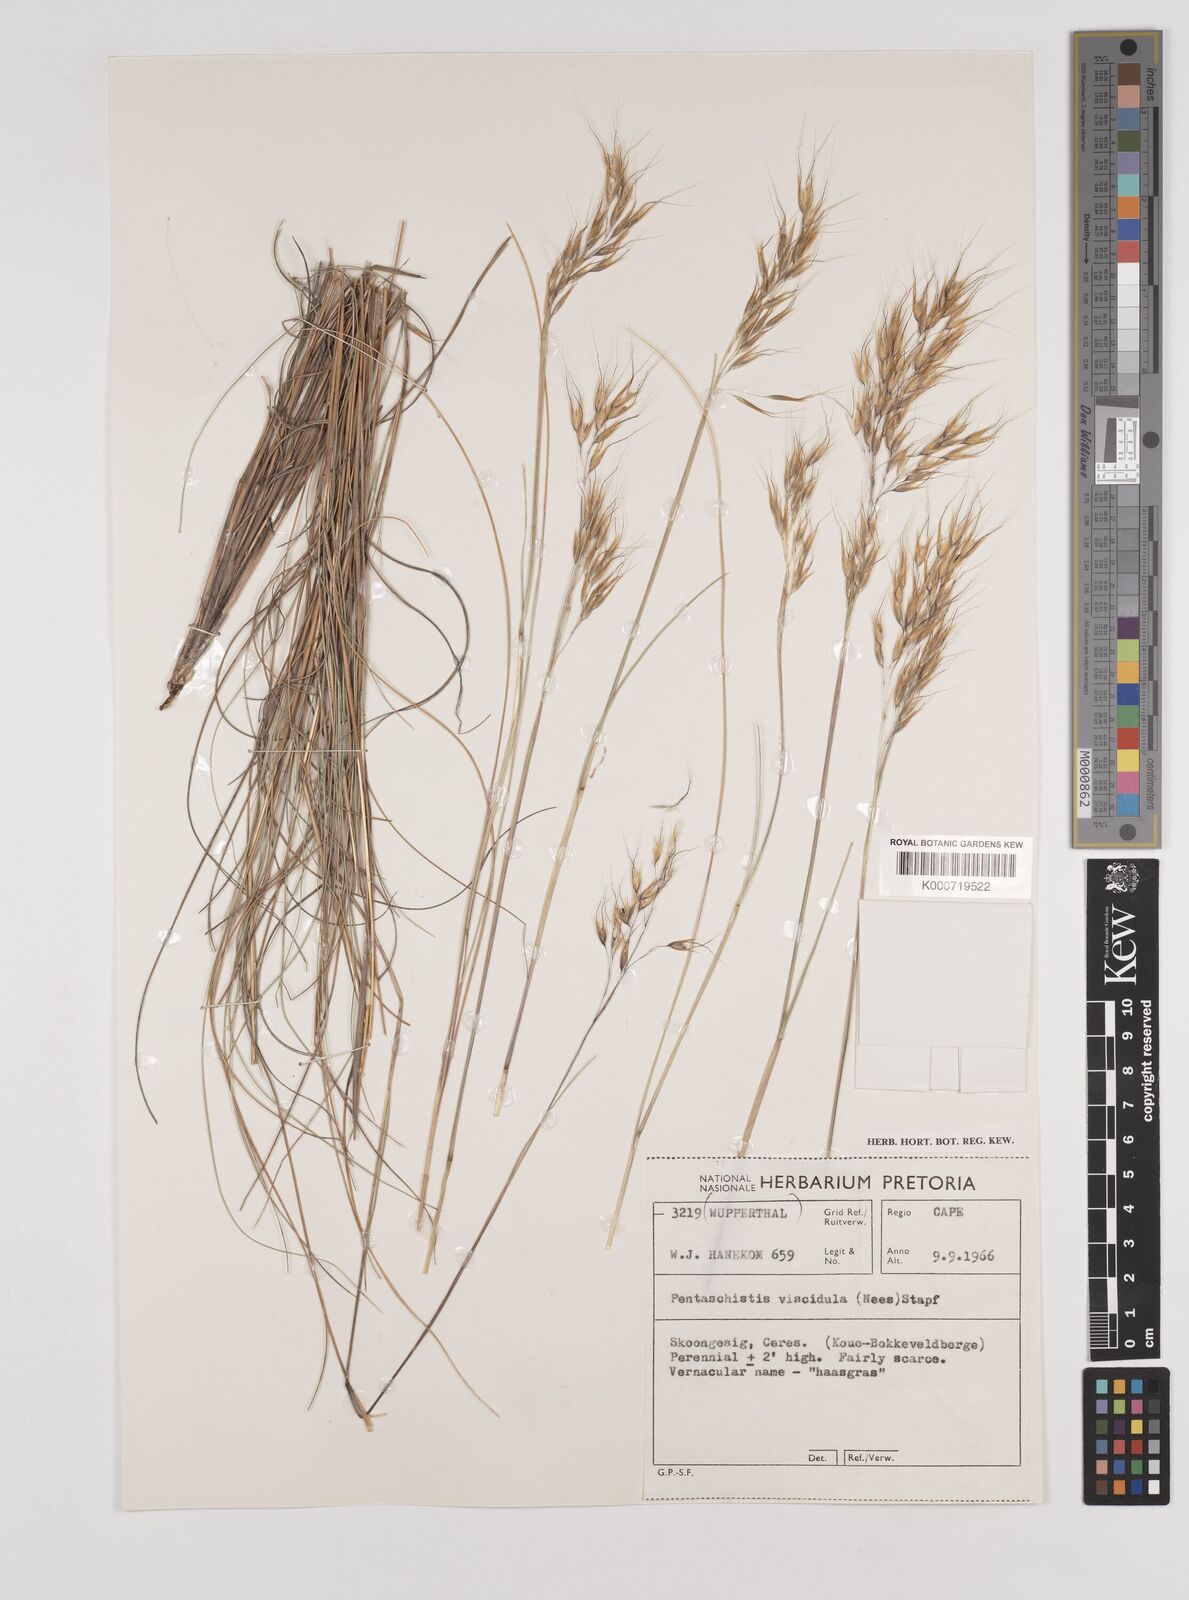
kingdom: Plantae
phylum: Tracheophyta
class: Liliopsida
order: Poales
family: Poaceae
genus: Pentameris
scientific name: Pentameris colorata
